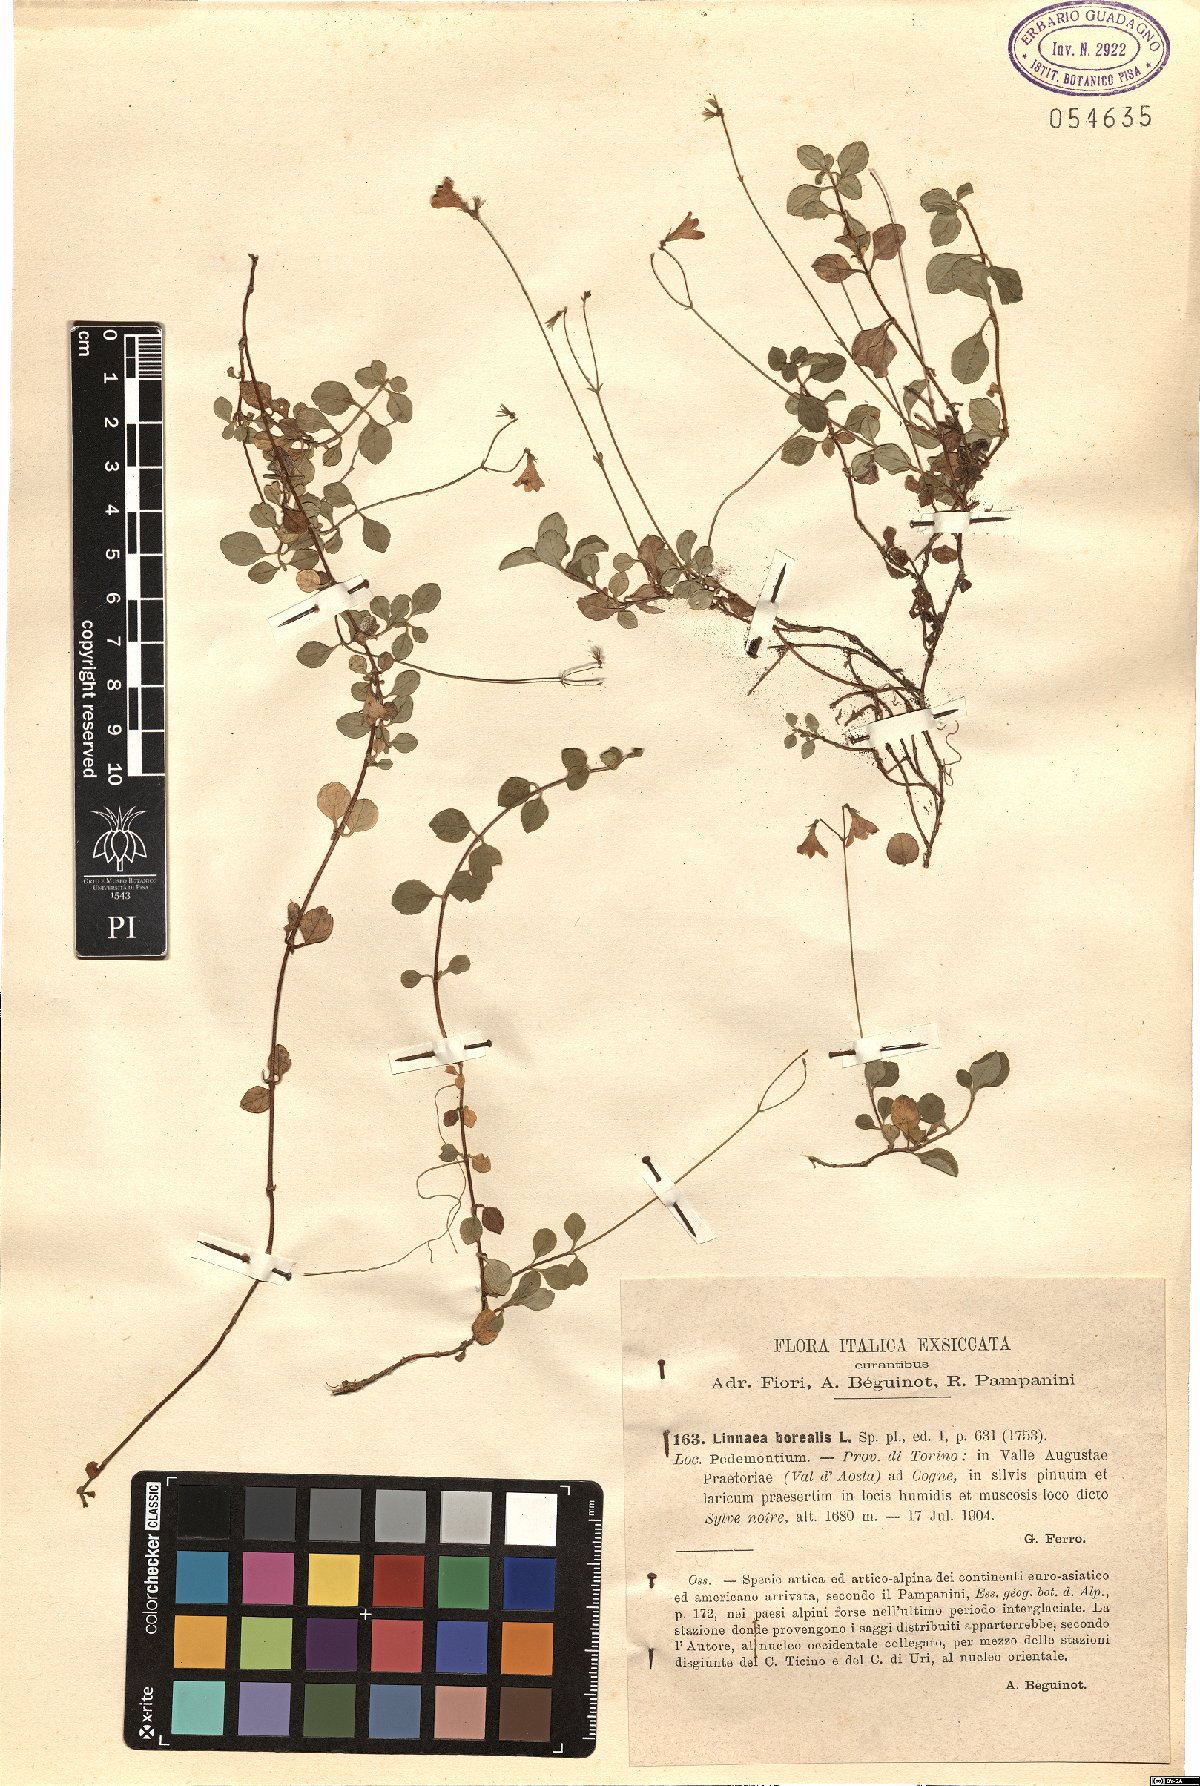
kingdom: Plantae
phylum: Tracheophyta
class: Magnoliopsida
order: Dipsacales
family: Caprifoliaceae
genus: Linnaea
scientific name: Linnaea borealis
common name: Twinflower
